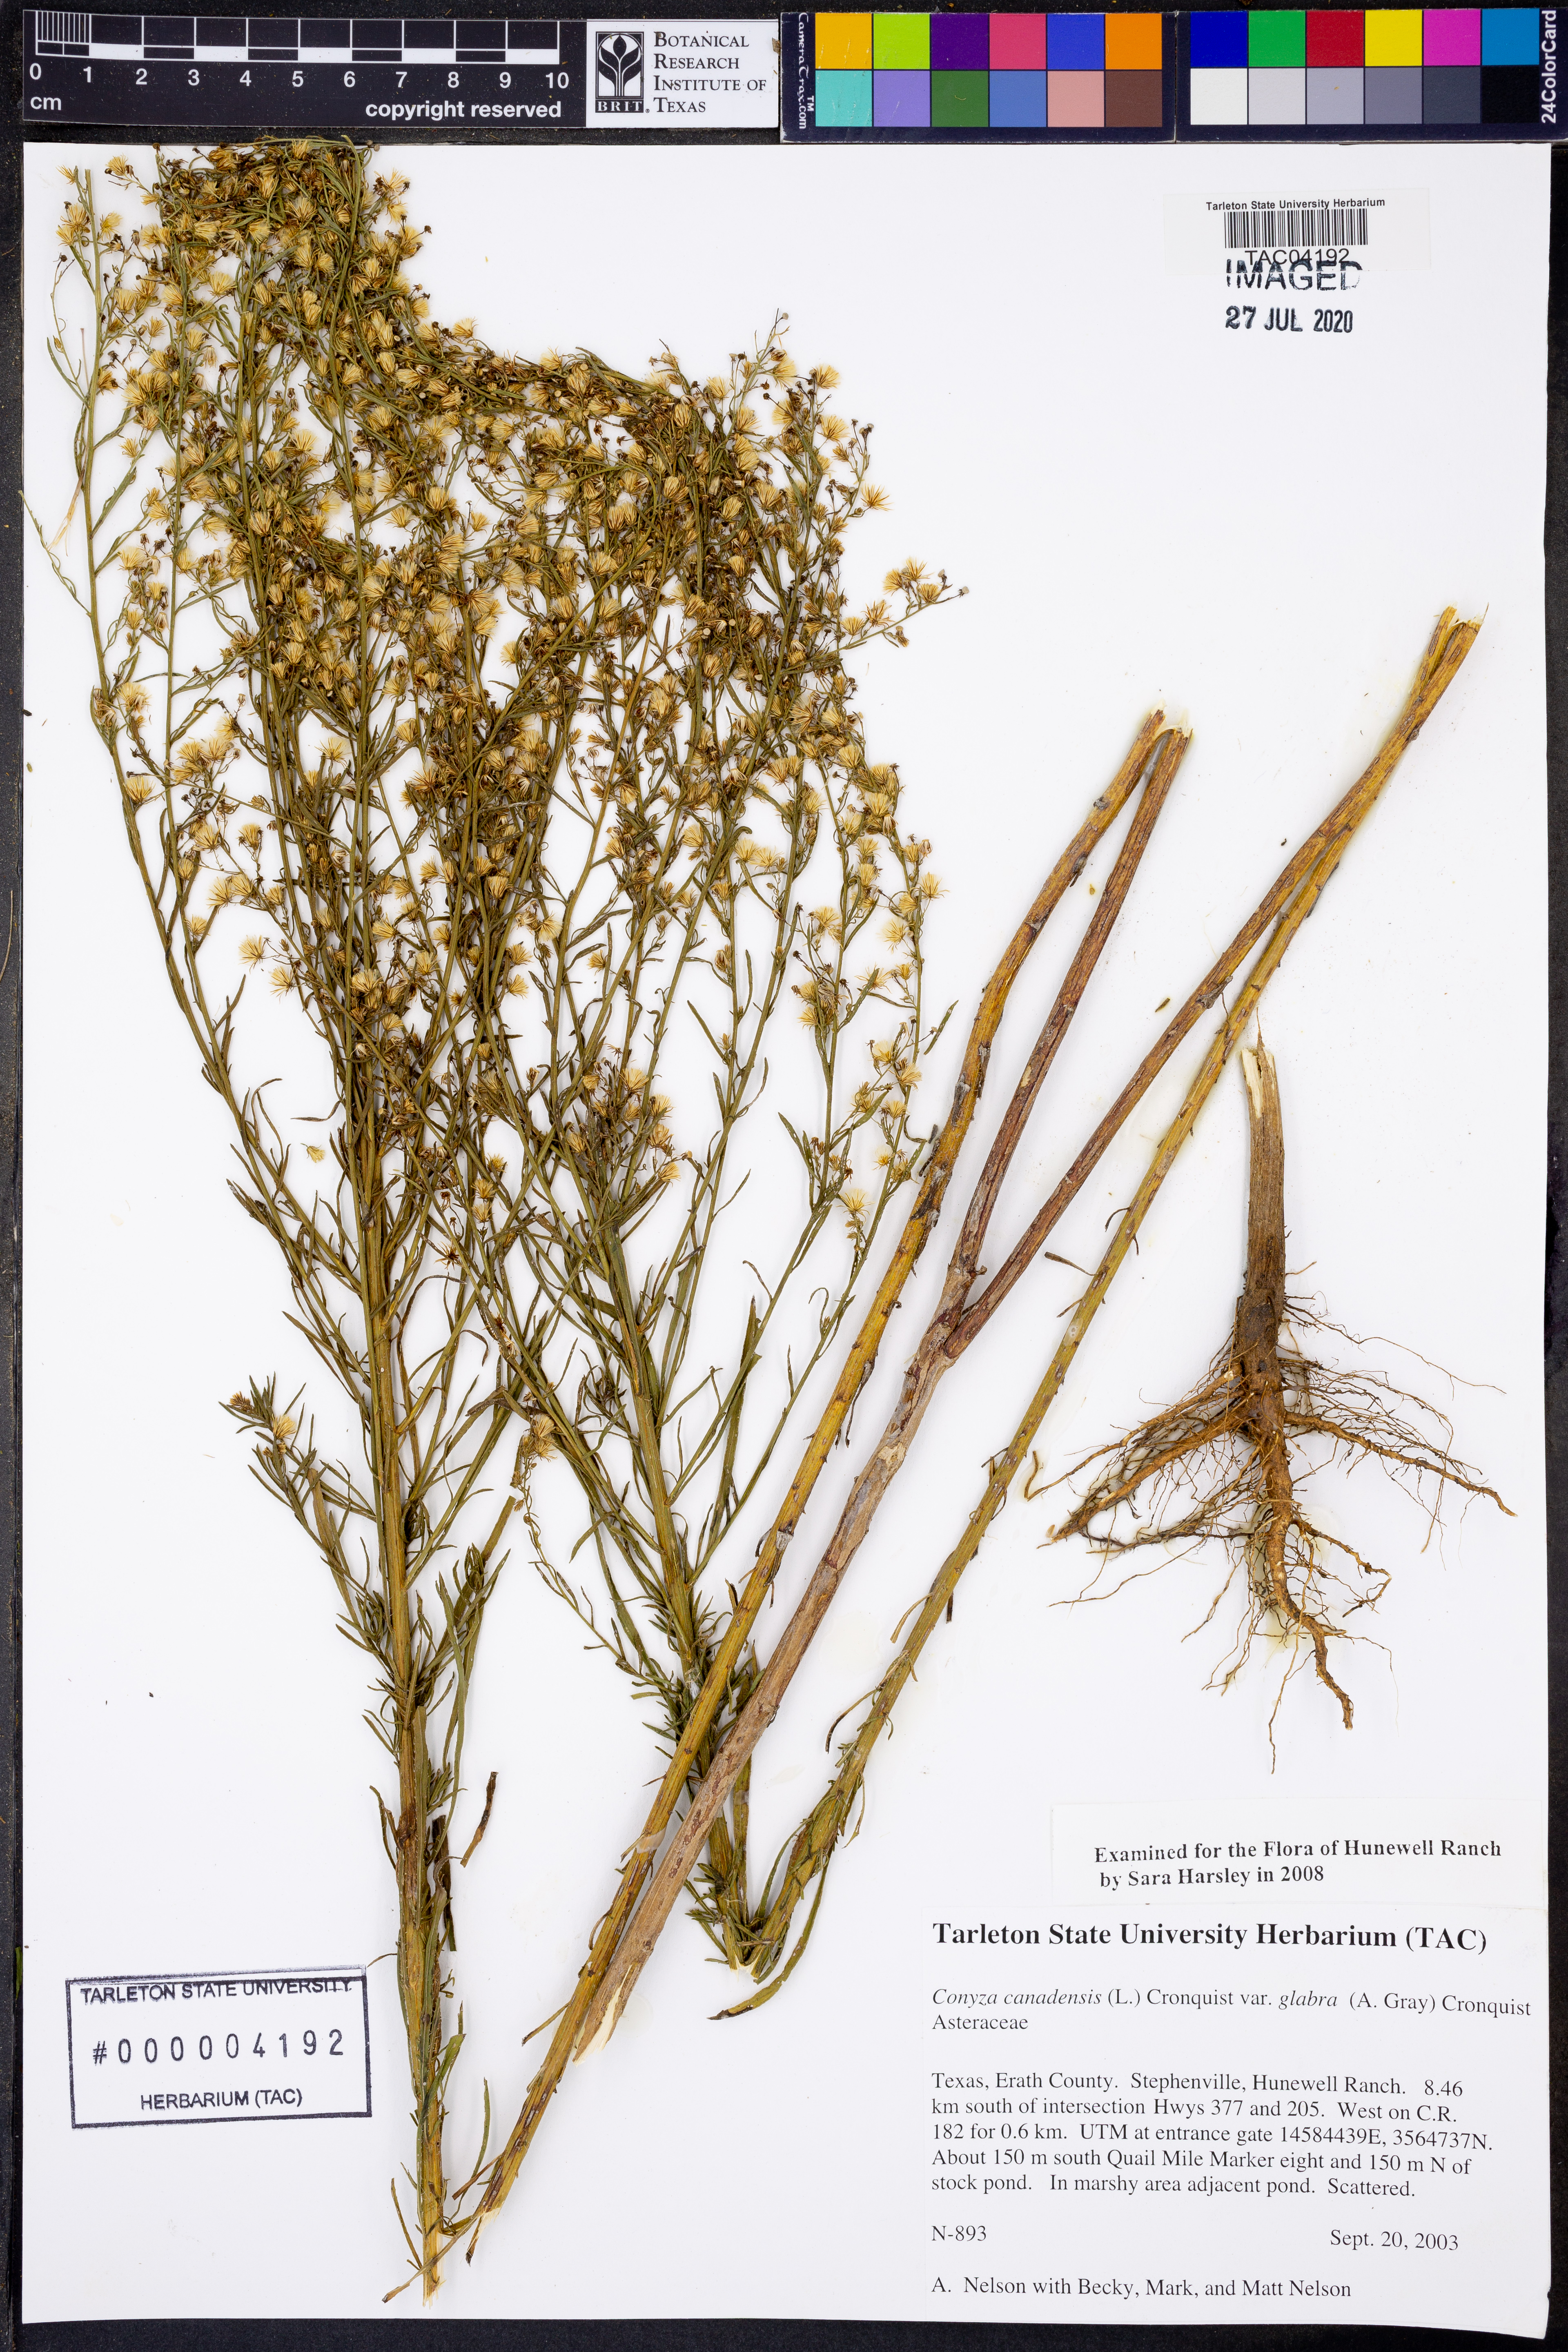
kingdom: Plantae
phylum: Tracheophyta
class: Magnoliopsida
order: Asterales
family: Asteraceae
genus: Erigeron
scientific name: Erigeron canadensis
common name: Canadian fleabane
